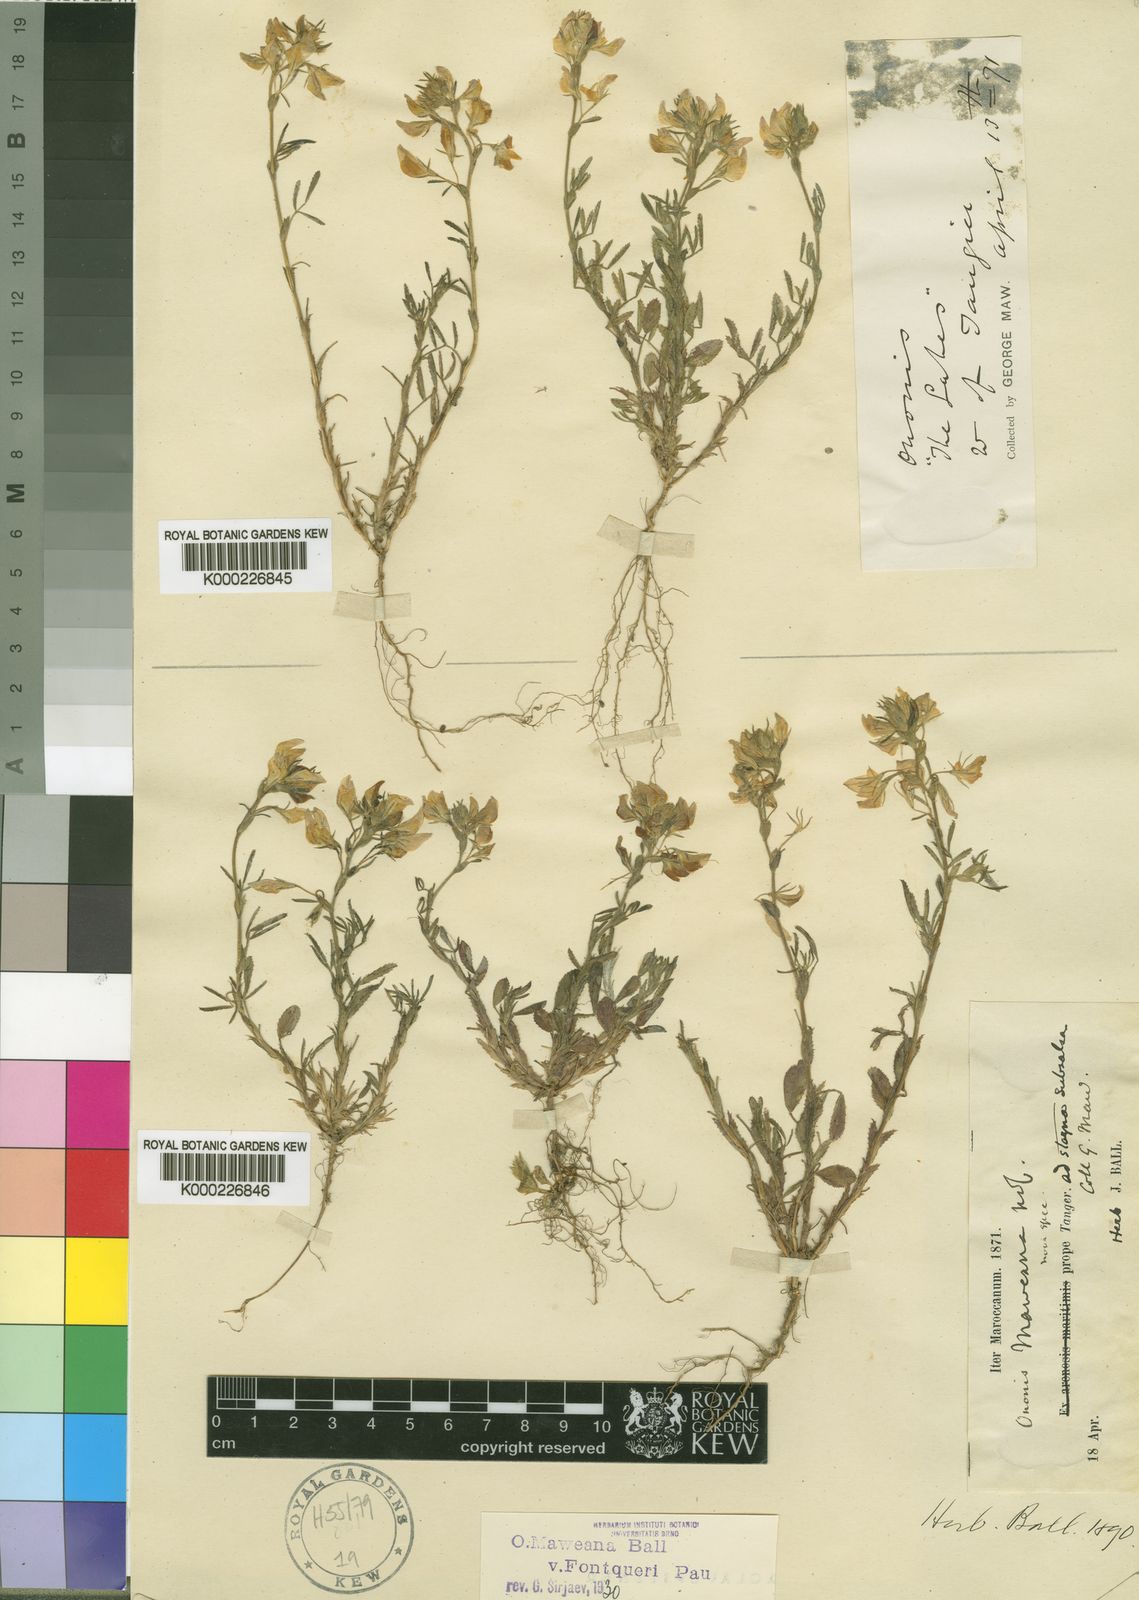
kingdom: Plantae
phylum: Tracheophyta
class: Magnoliopsida
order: Fabales
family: Fabaceae
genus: Ononis
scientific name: Ononis maweana
